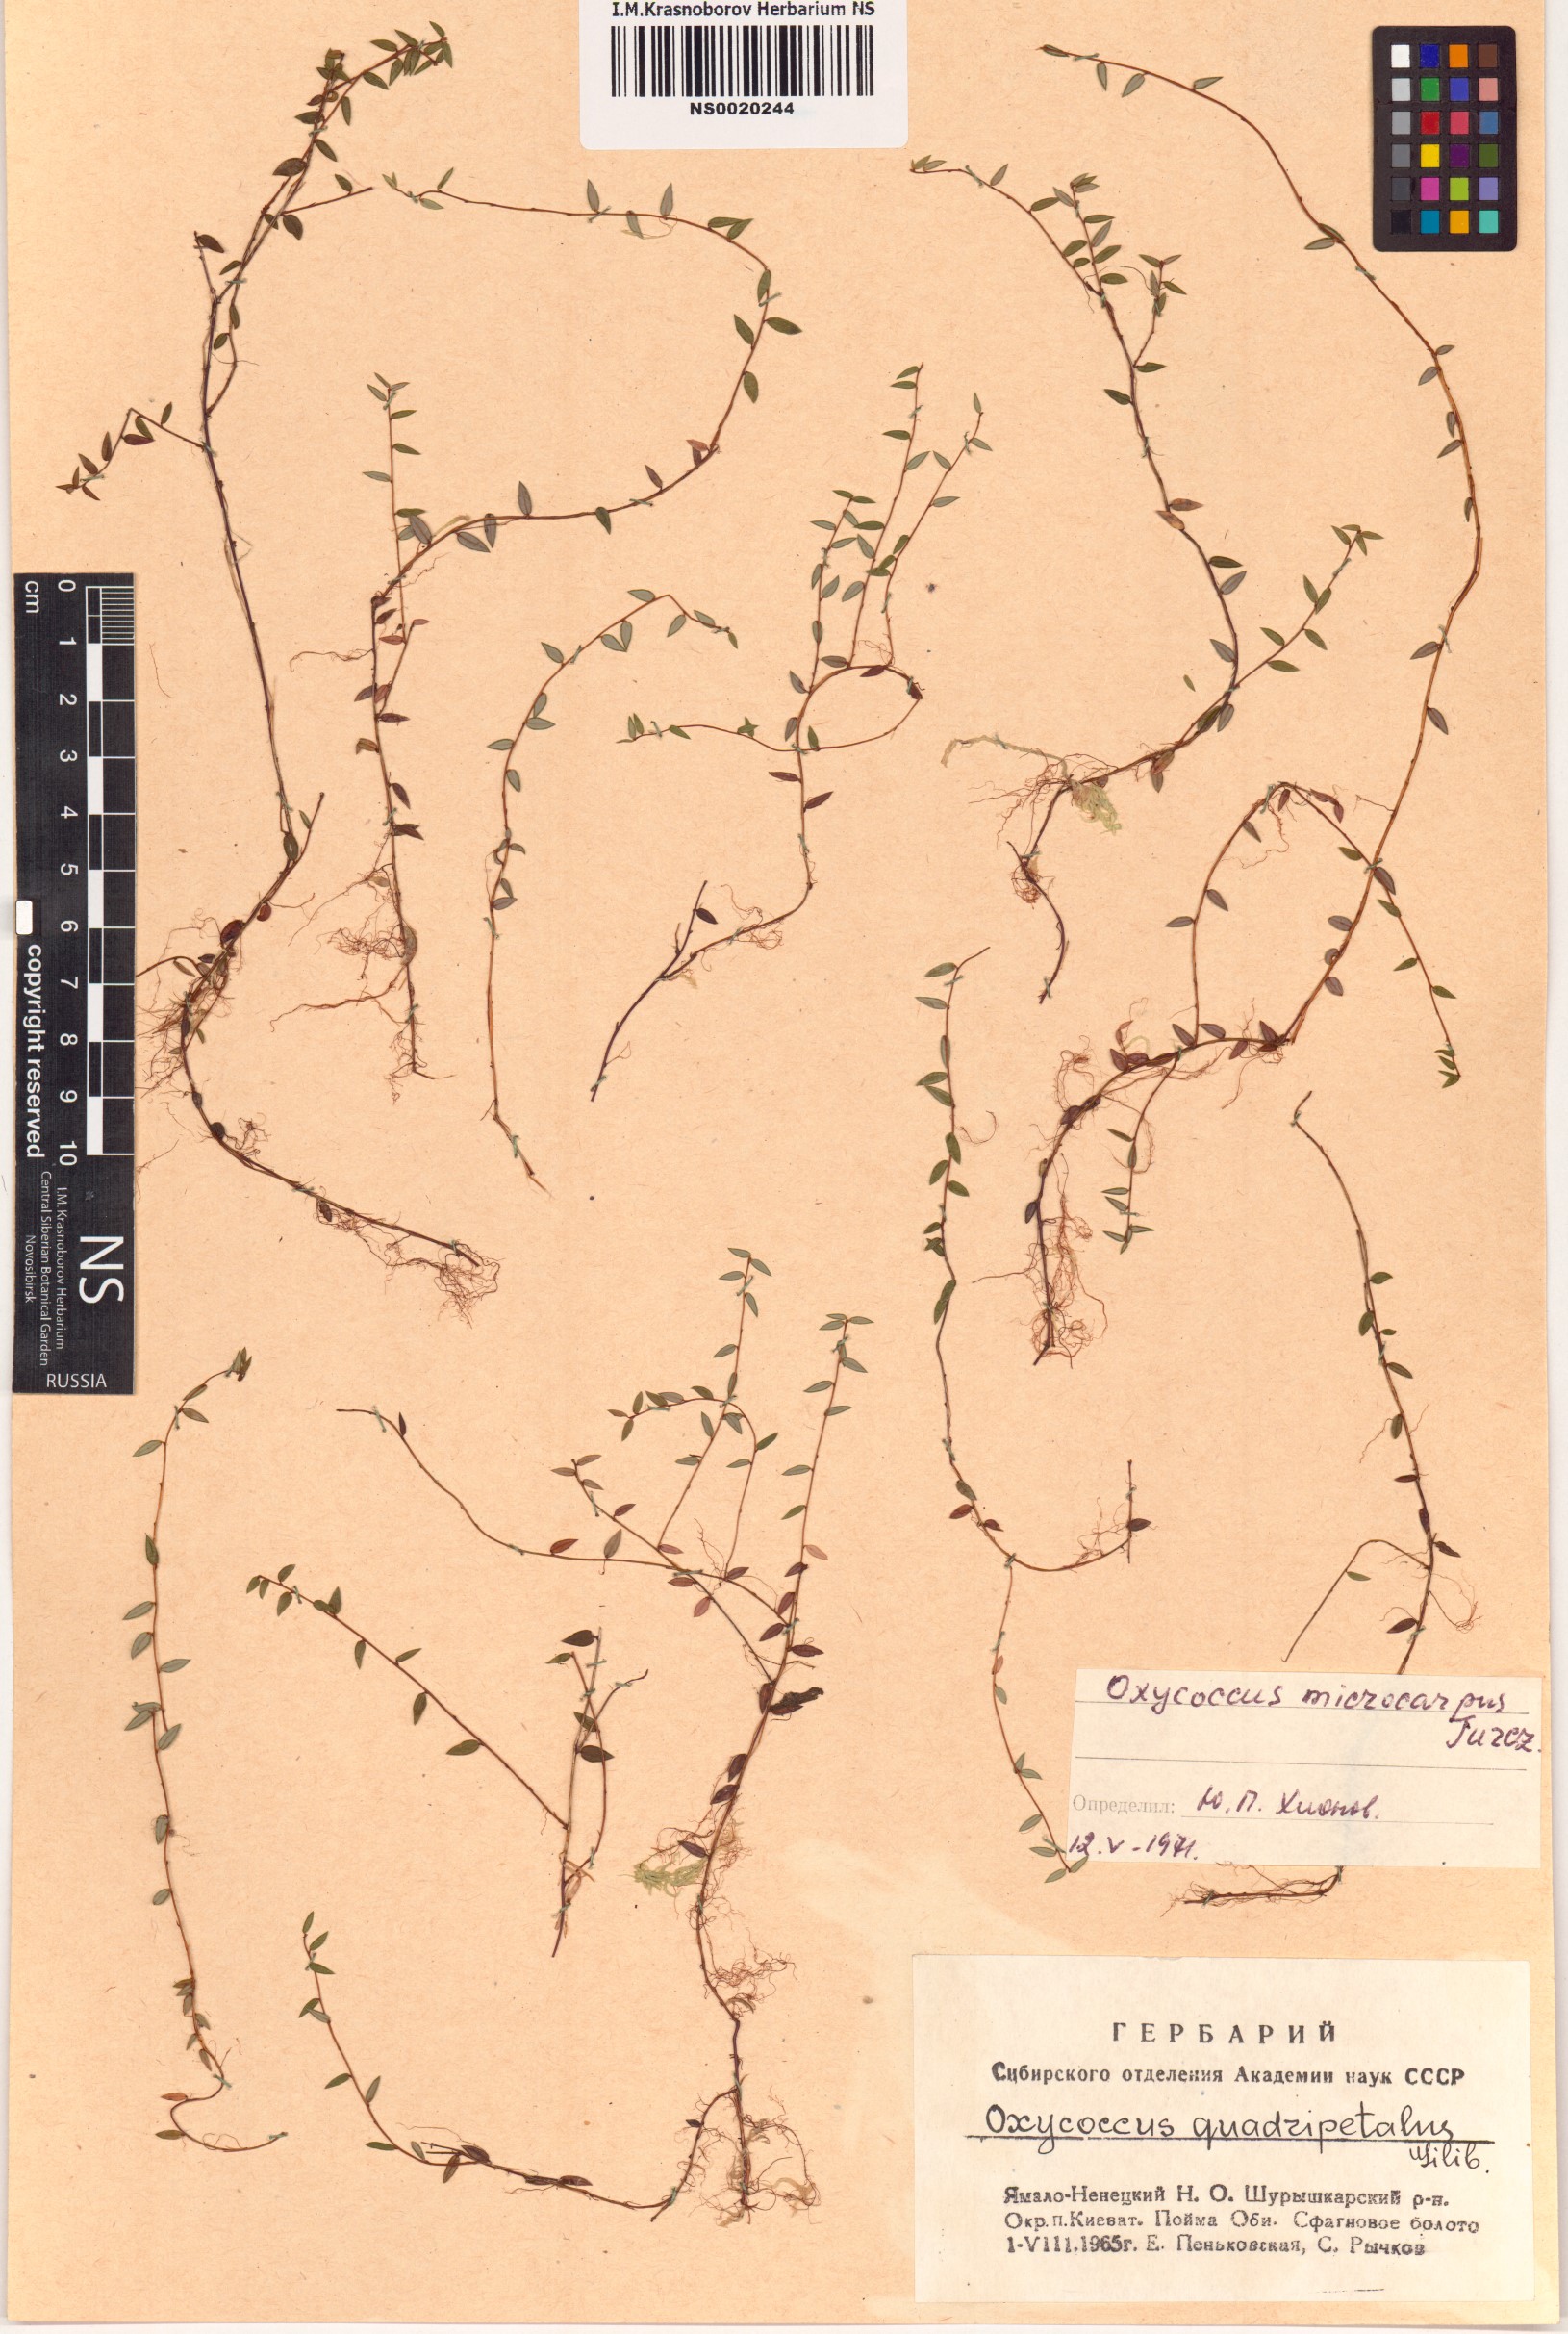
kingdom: Plantae
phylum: Tracheophyta
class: Magnoliopsida
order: Ericales
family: Ericaceae
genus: Vaccinium
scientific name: Vaccinium microcarpum
